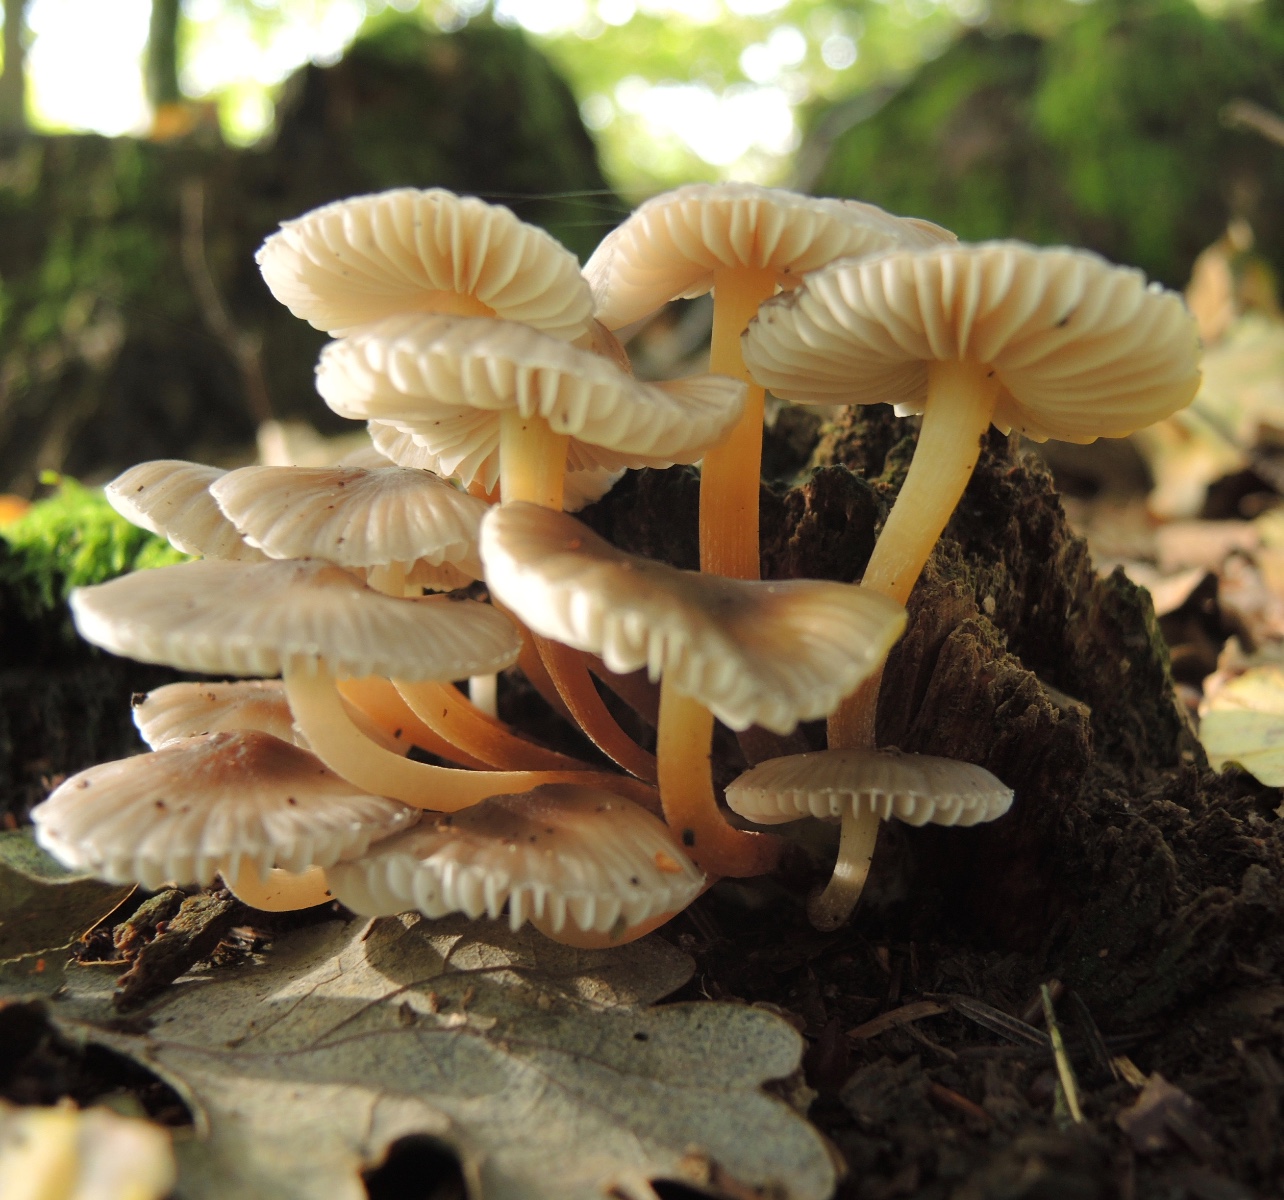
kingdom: Fungi
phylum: Basidiomycota
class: Agaricomycetes
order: Agaricales
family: Mycenaceae
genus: Mycena
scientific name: Mycena inclinata
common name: nikkende huesvamp
